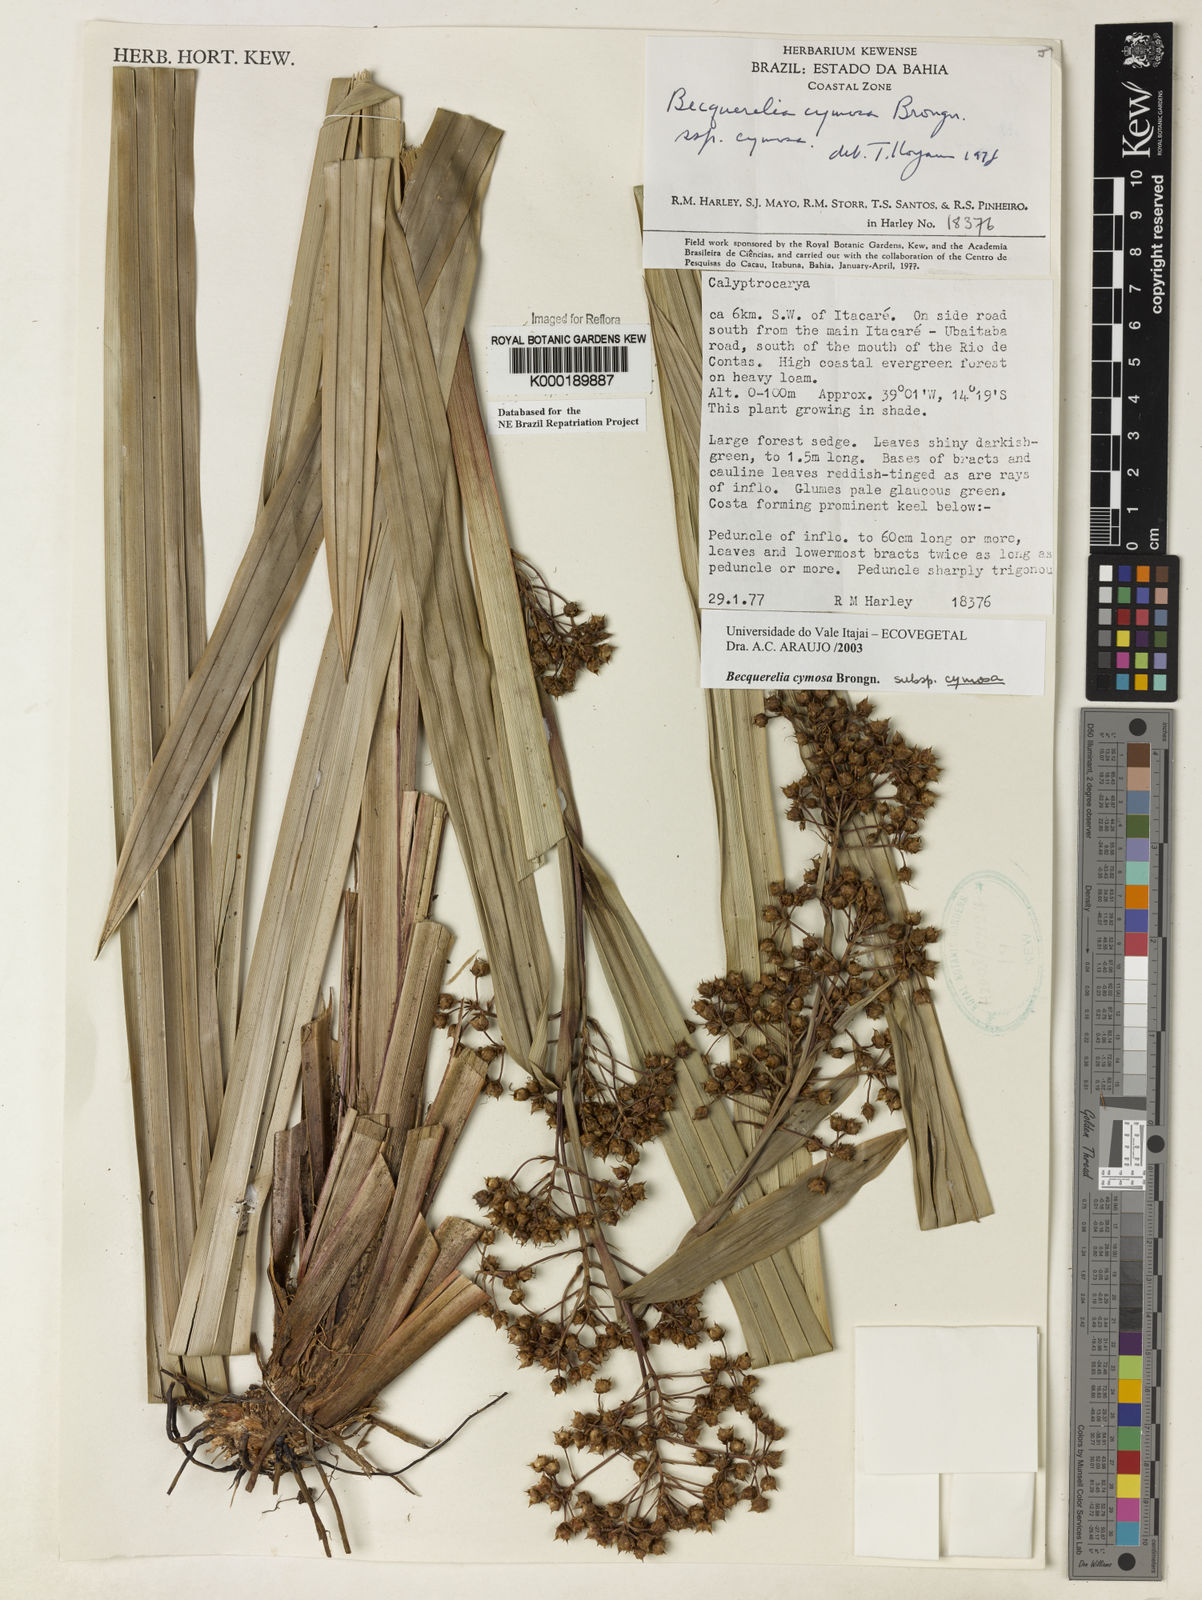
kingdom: Plantae
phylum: Tracheophyta
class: Liliopsida
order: Poales
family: Cyperaceae
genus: Becquerelia
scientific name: Becquerelia cymosa
